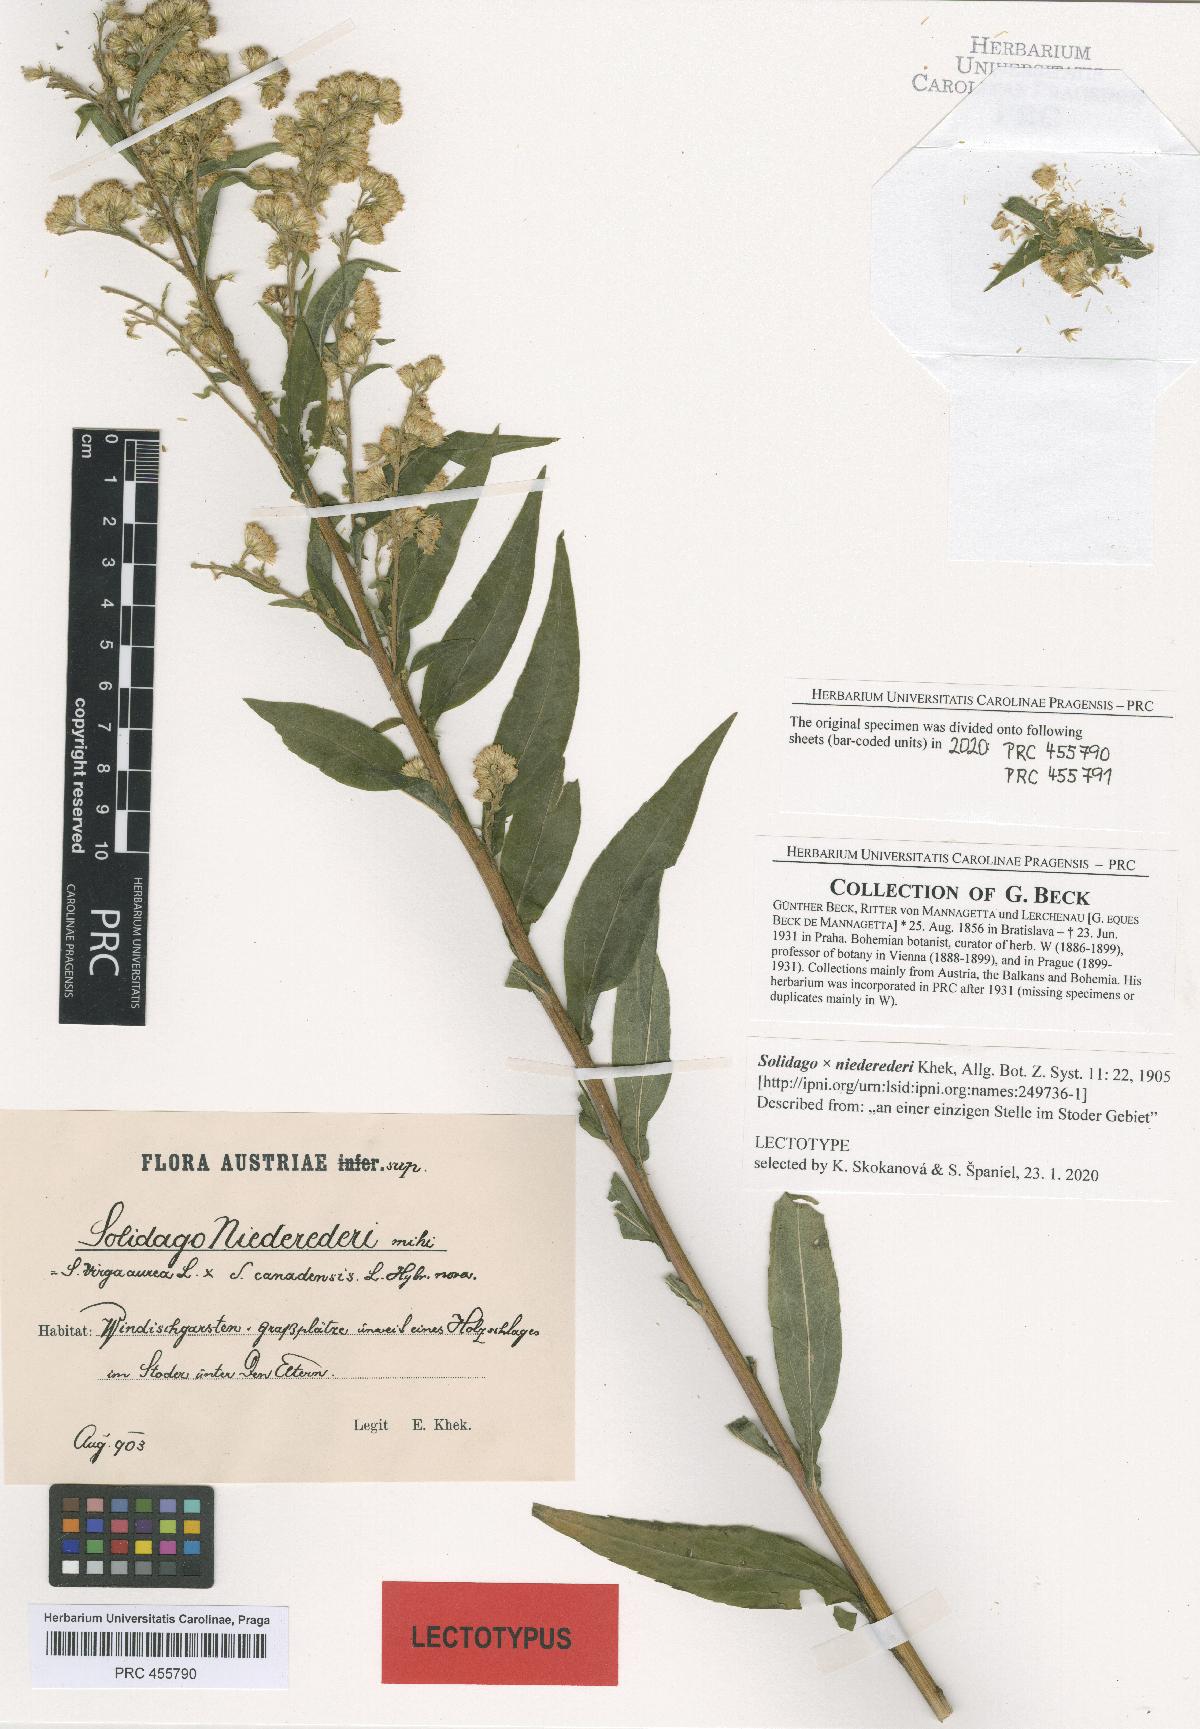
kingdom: Plantae
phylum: Tracheophyta
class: Magnoliopsida
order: Asterales
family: Asteraceae
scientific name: Asteraceae
